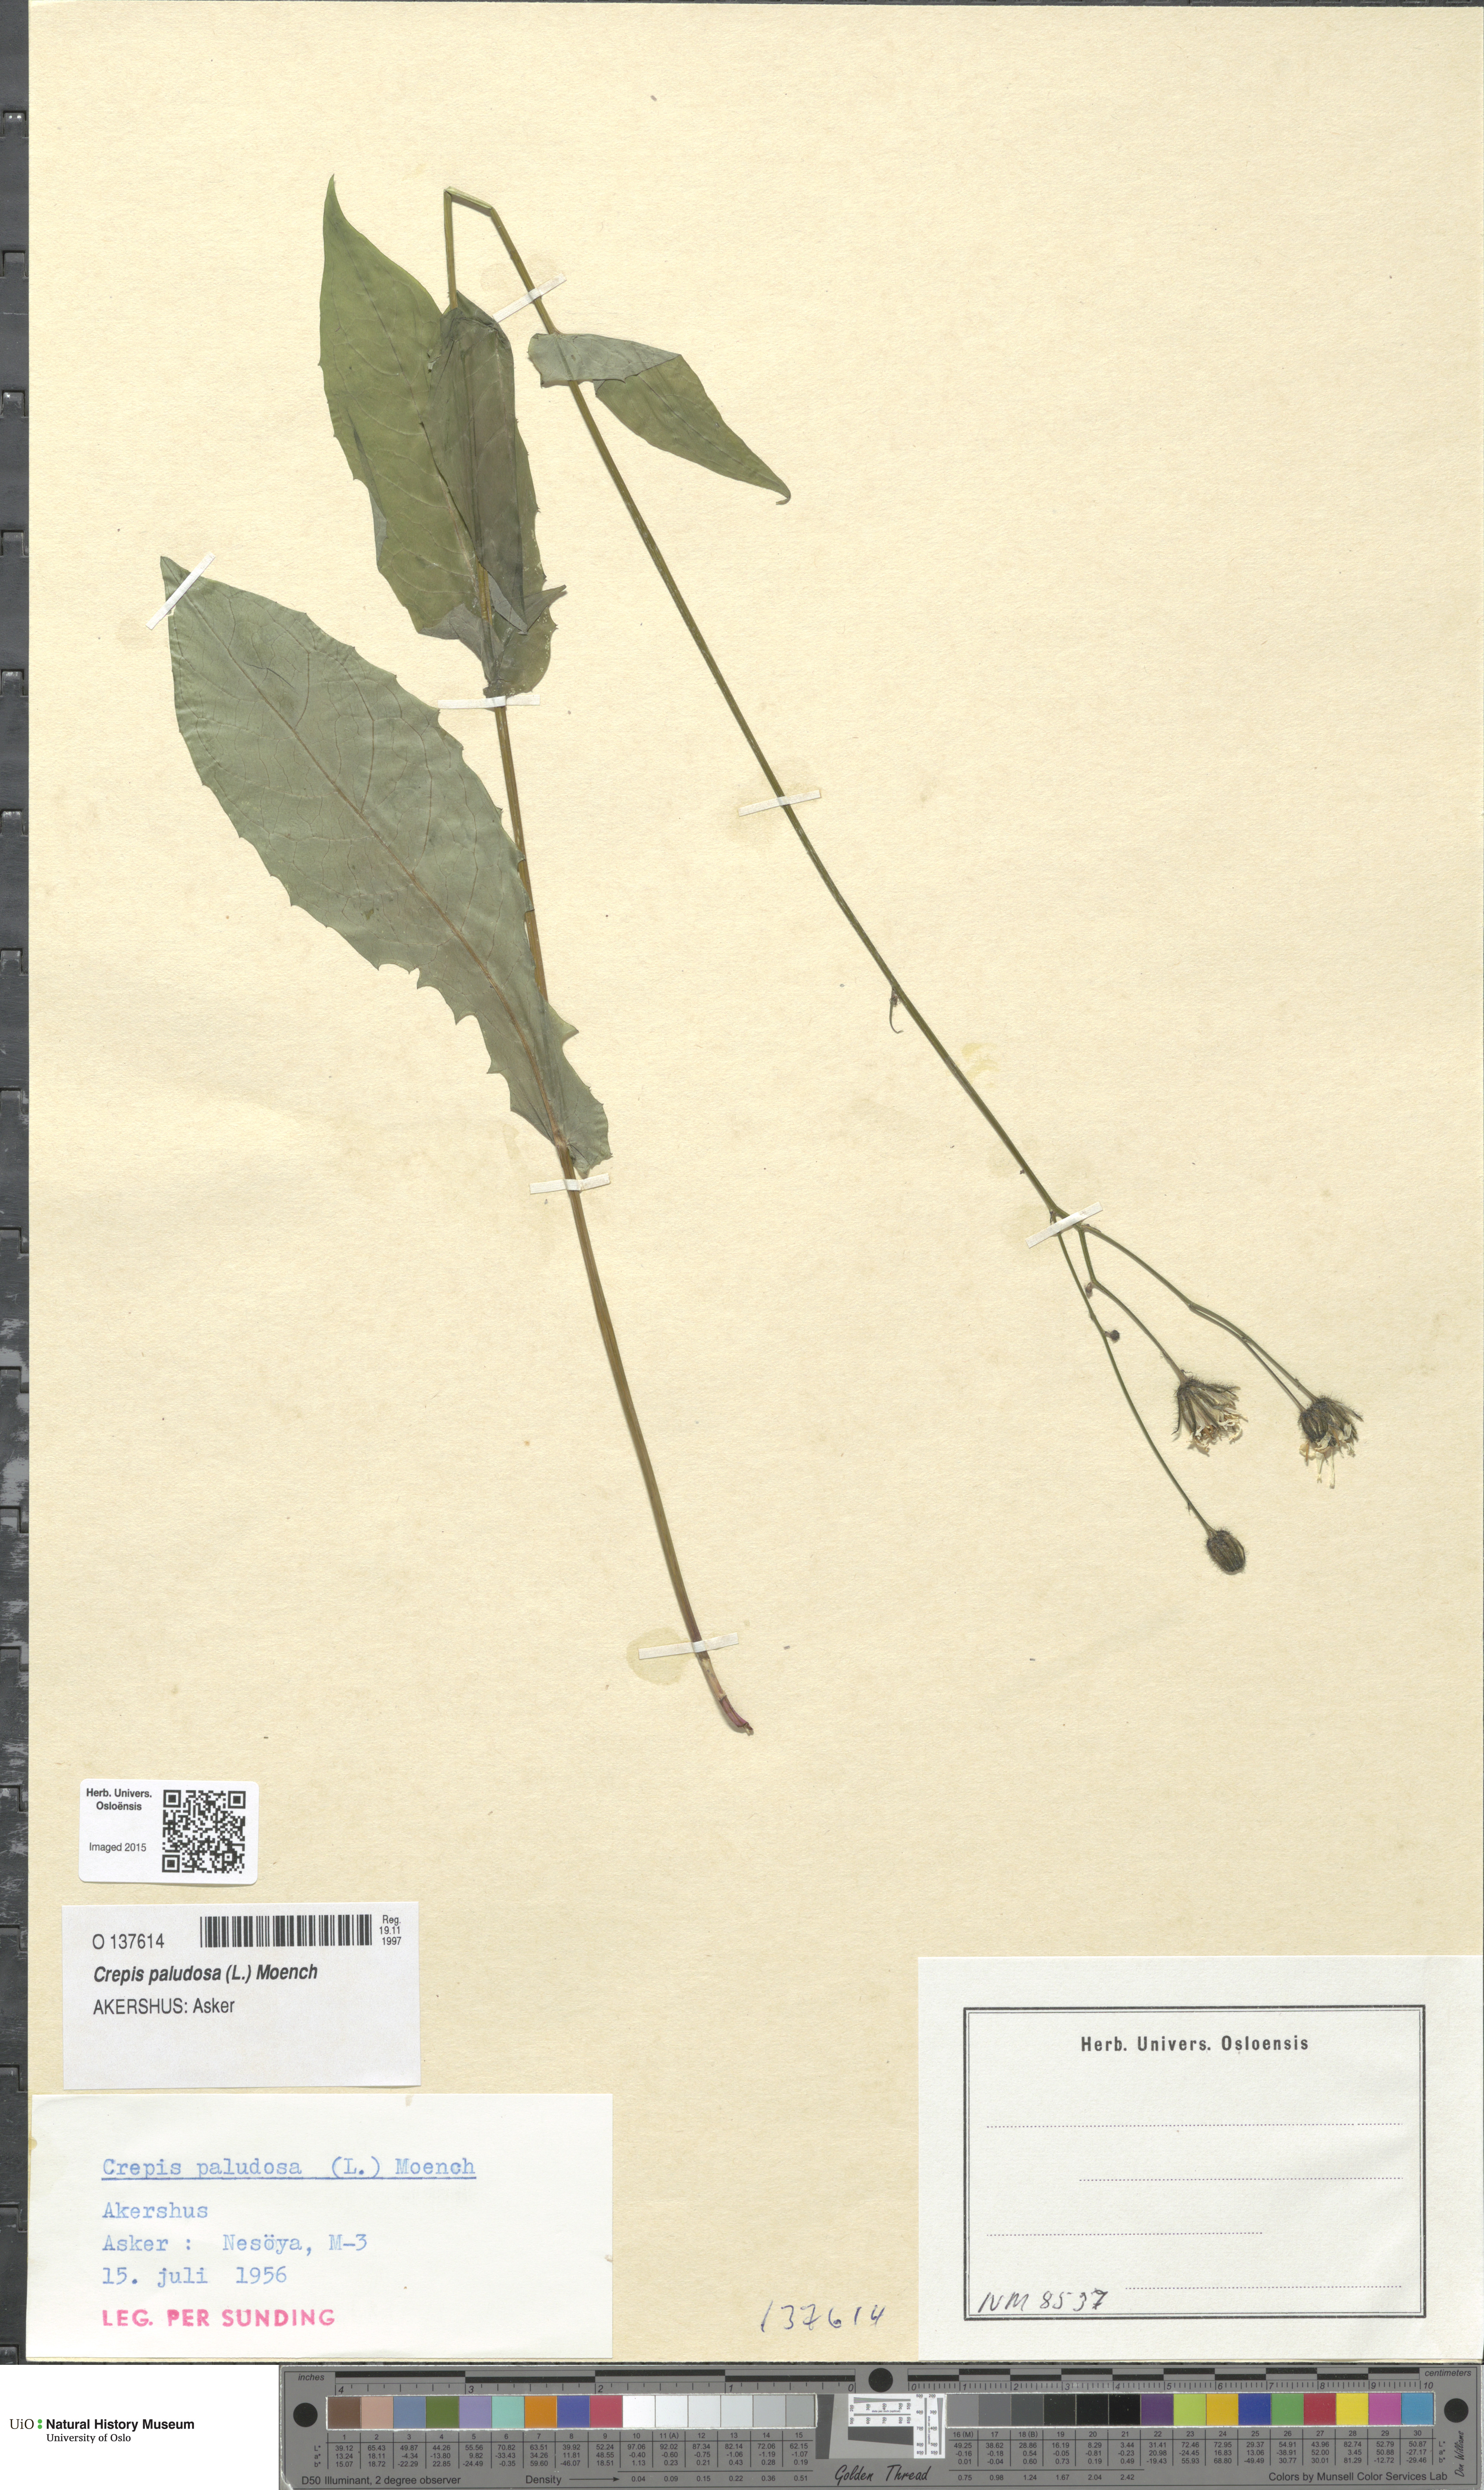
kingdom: Plantae
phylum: Tracheophyta
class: Magnoliopsida
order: Asterales
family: Asteraceae
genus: Crepis
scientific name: Crepis paludosa
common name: Marsh hawk's-beard
